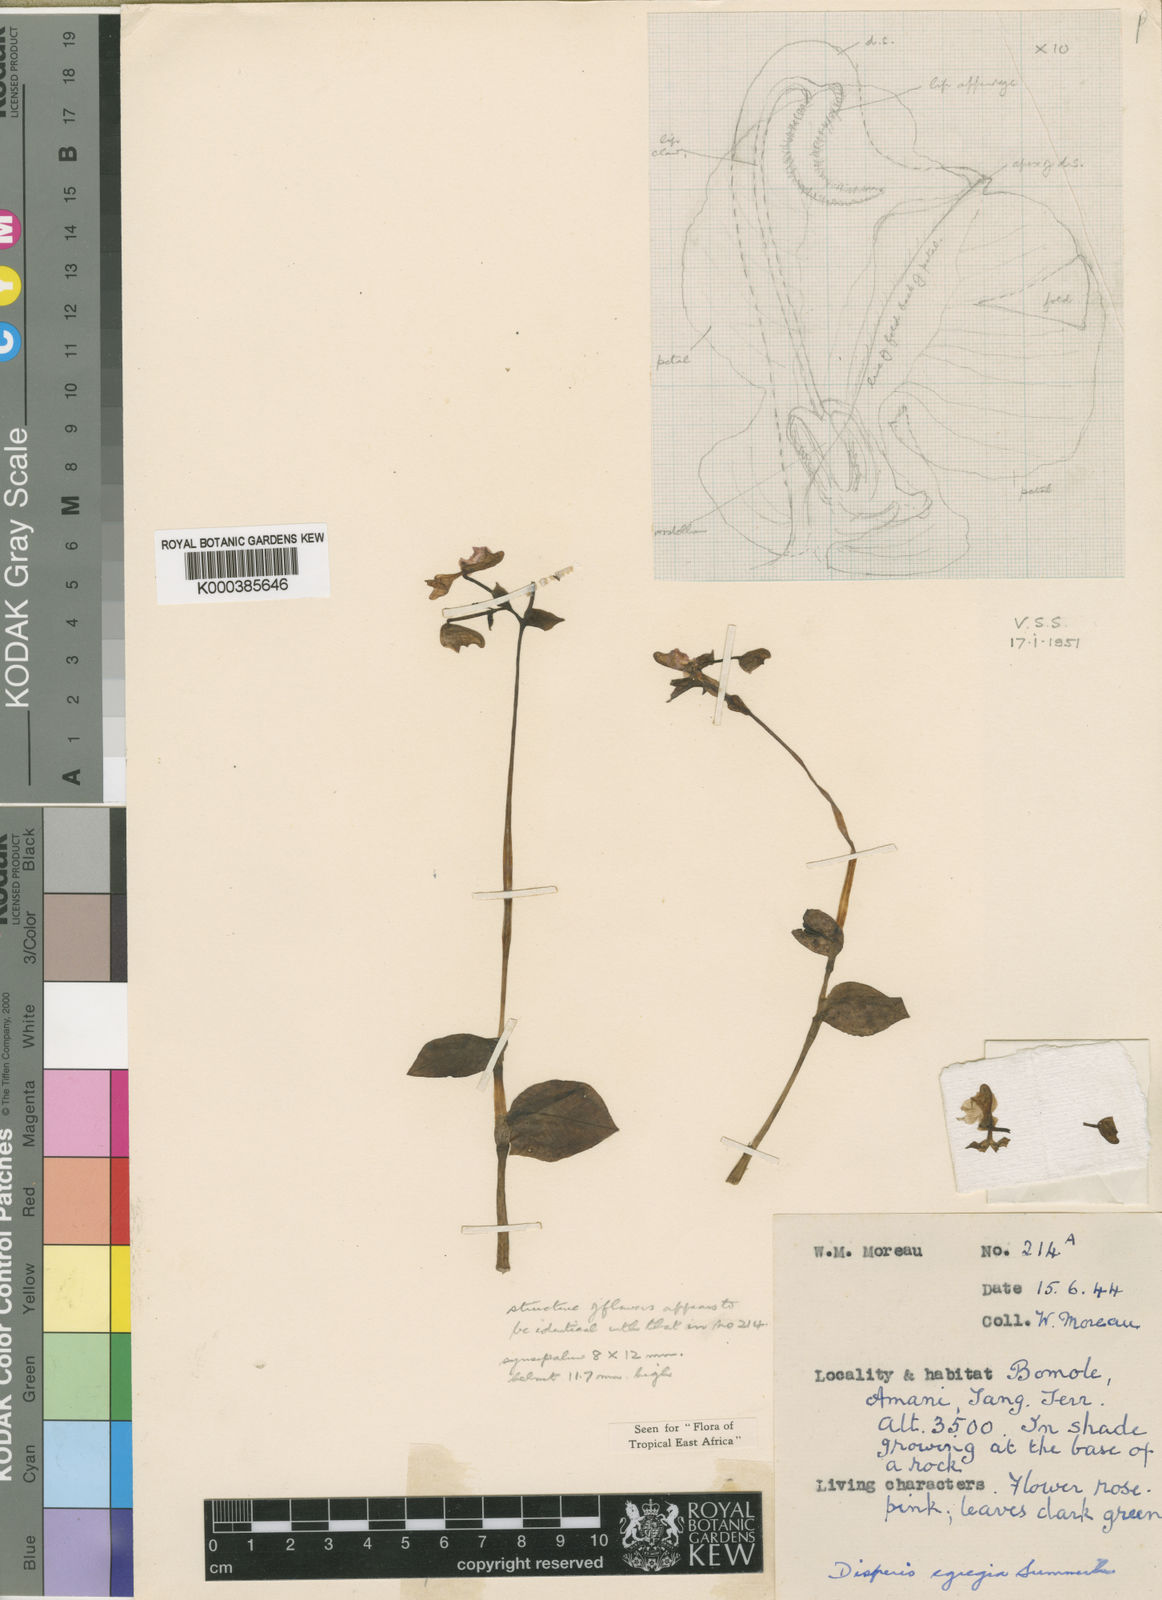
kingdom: Plantae
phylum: Tracheophyta
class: Liliopsida
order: Asparagales
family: Orchidaceae
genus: Disperis
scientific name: Disperis egregia
